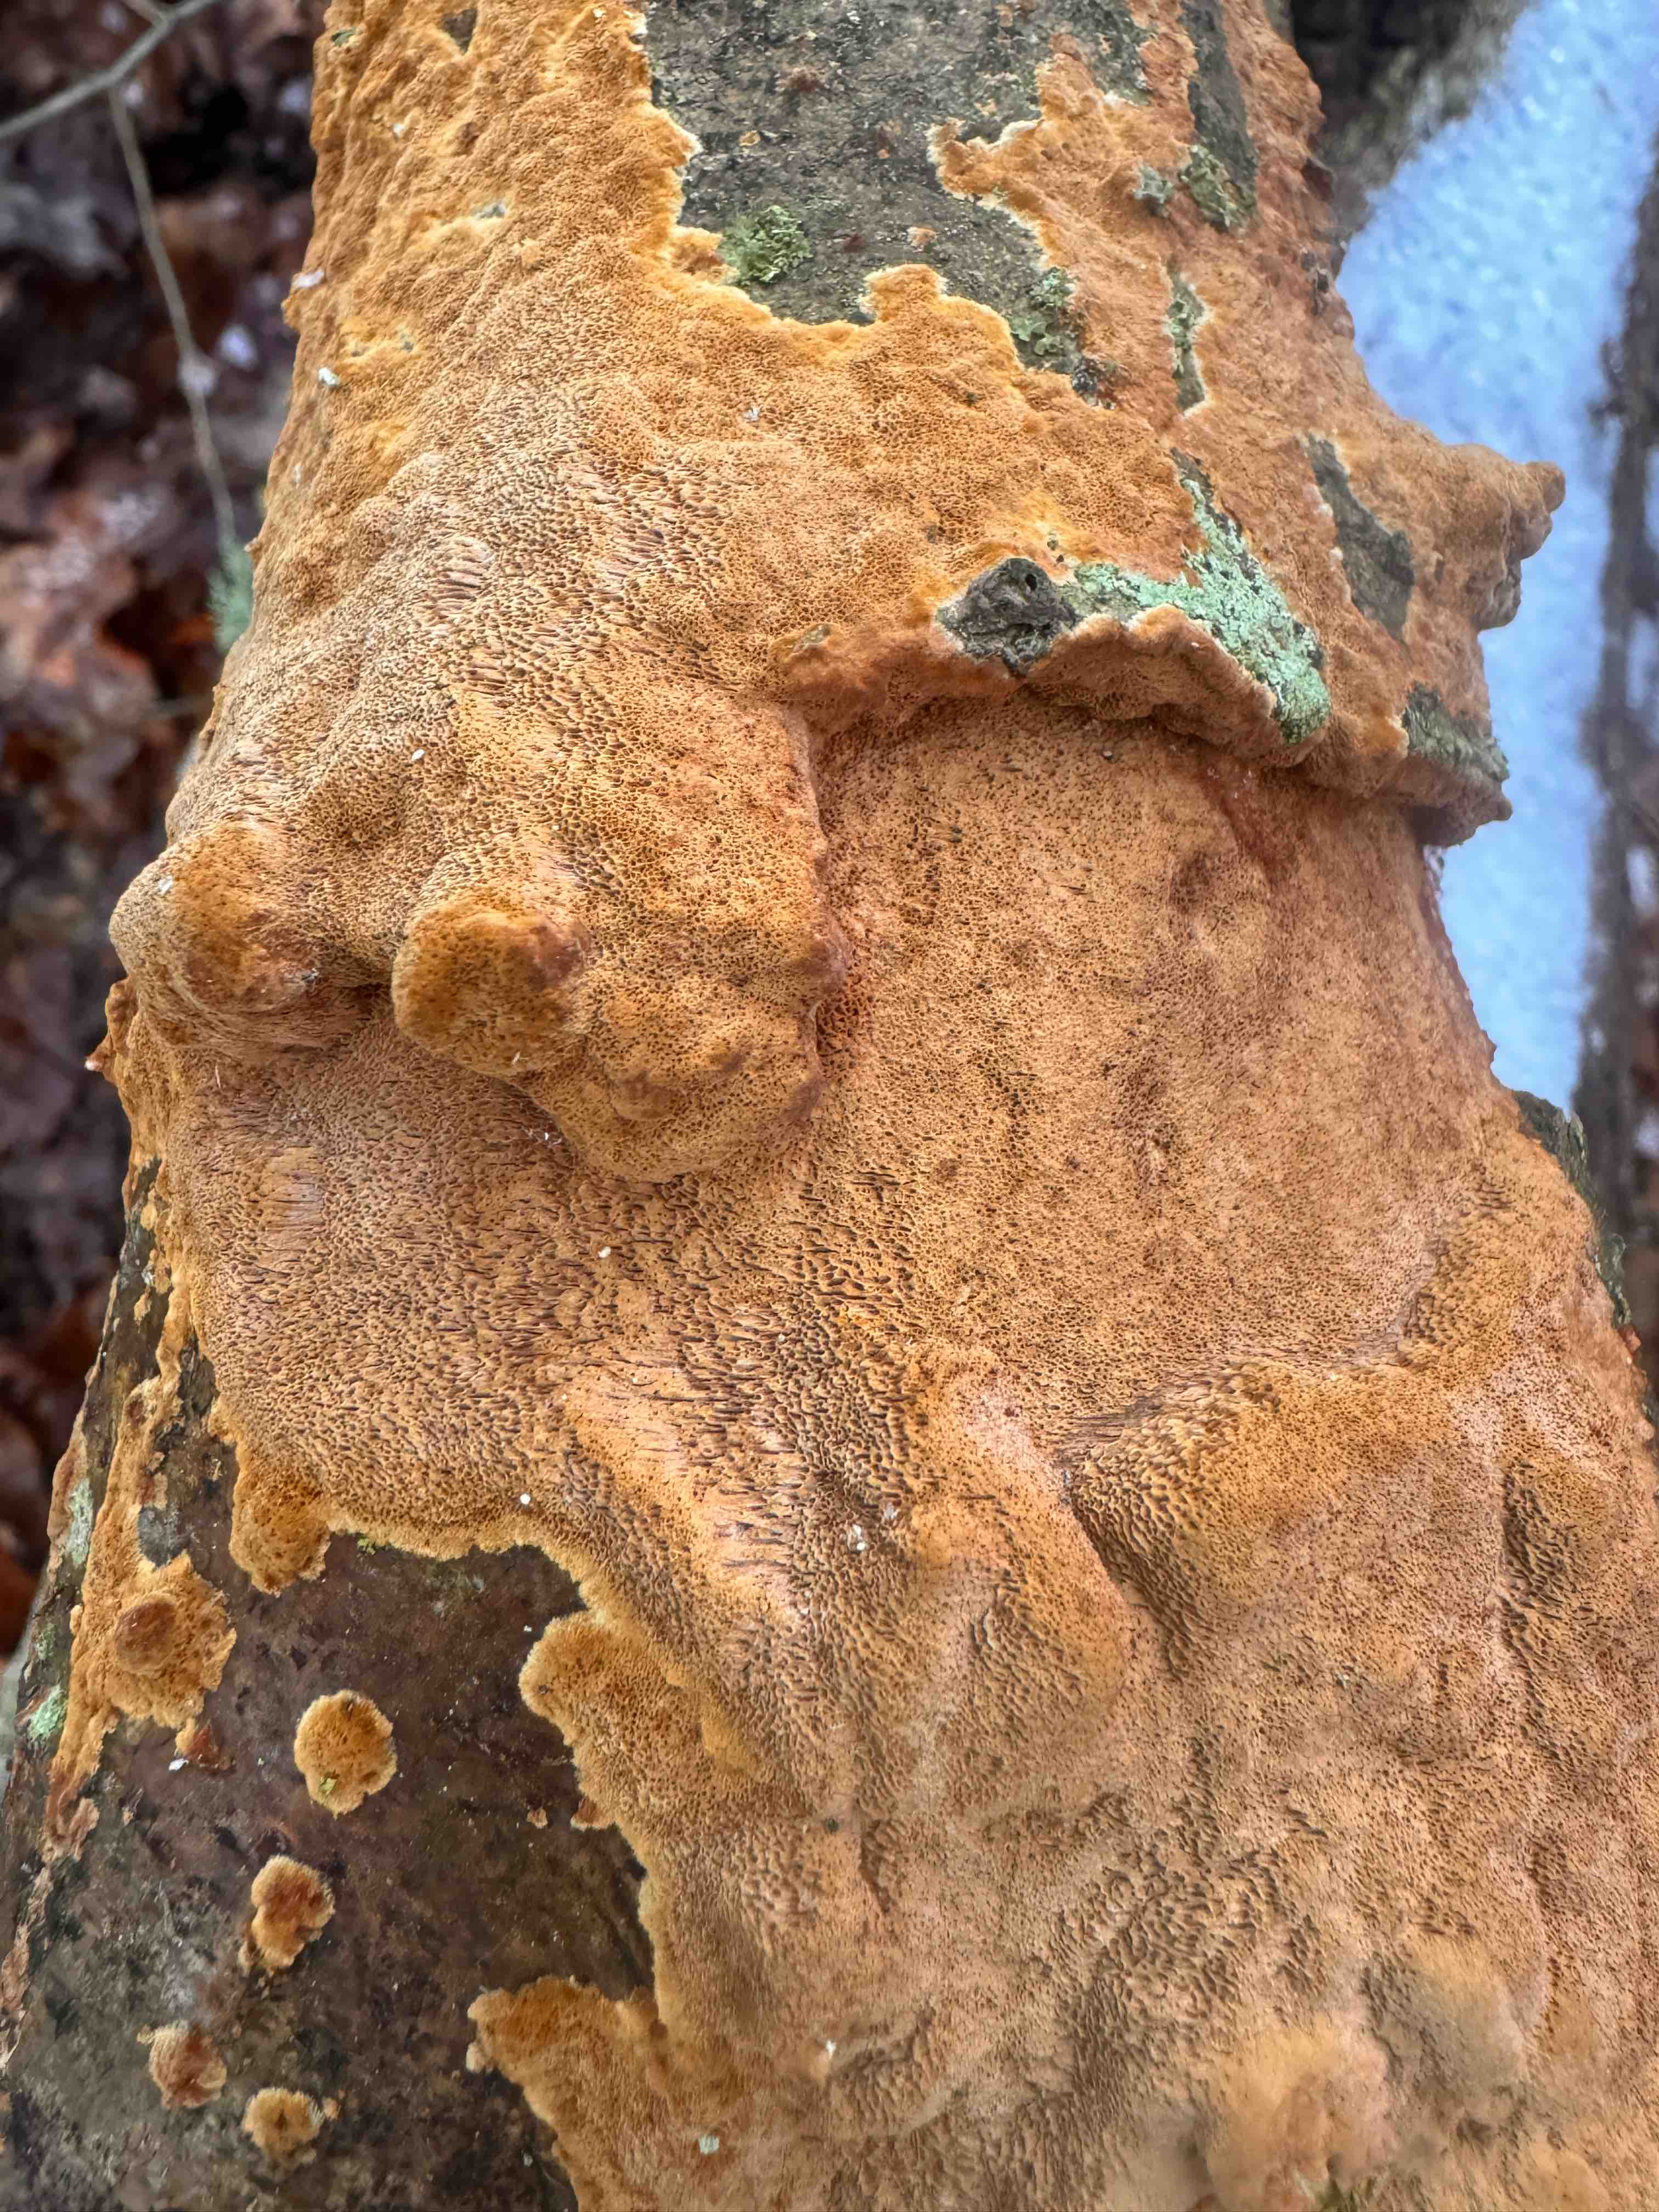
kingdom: Fungi
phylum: Basidiomycota
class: Agaricomycetes
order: Hymenochaetales
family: Hymenochaetaceae
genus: Fuscoporia
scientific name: Fuscoporia ferrea
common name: skorpe-ildporesvamp
